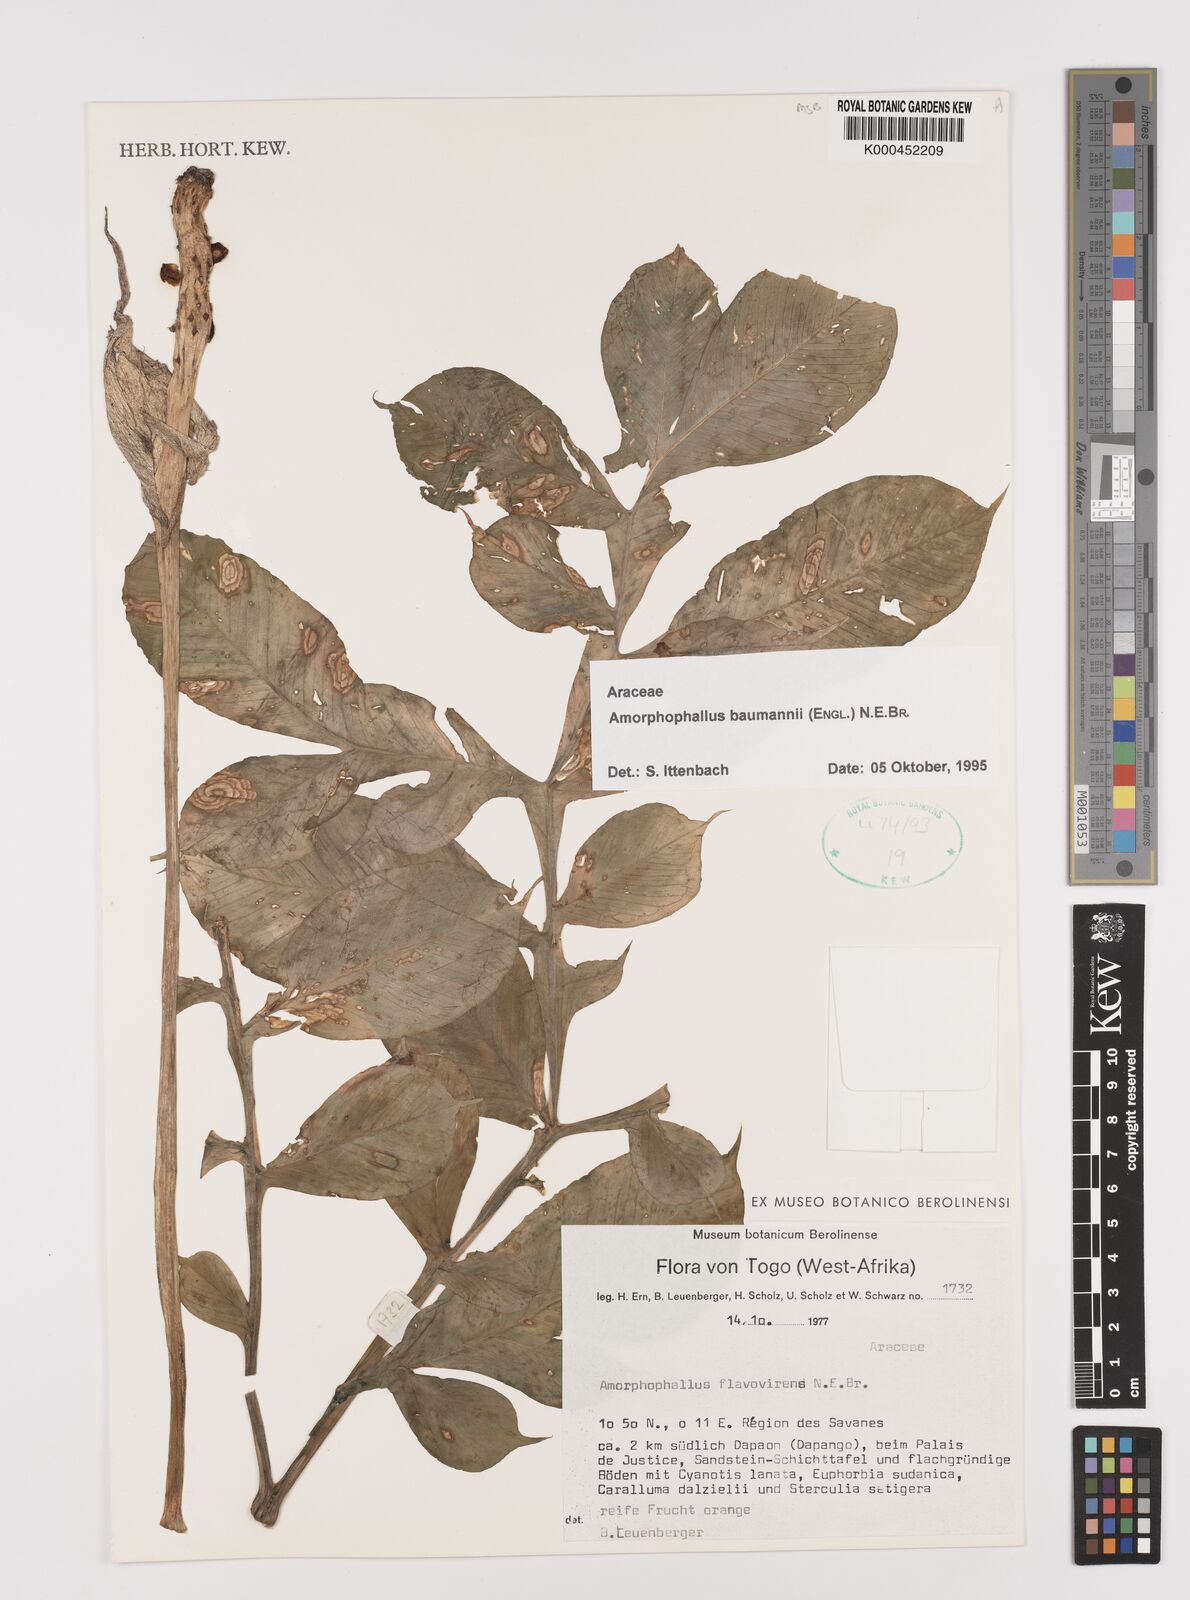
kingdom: Plantae
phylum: Tracheophyta
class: Liliopsida
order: Alismatales
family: Araceae
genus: Amorphophallus
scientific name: Amorphophallus baumannii
